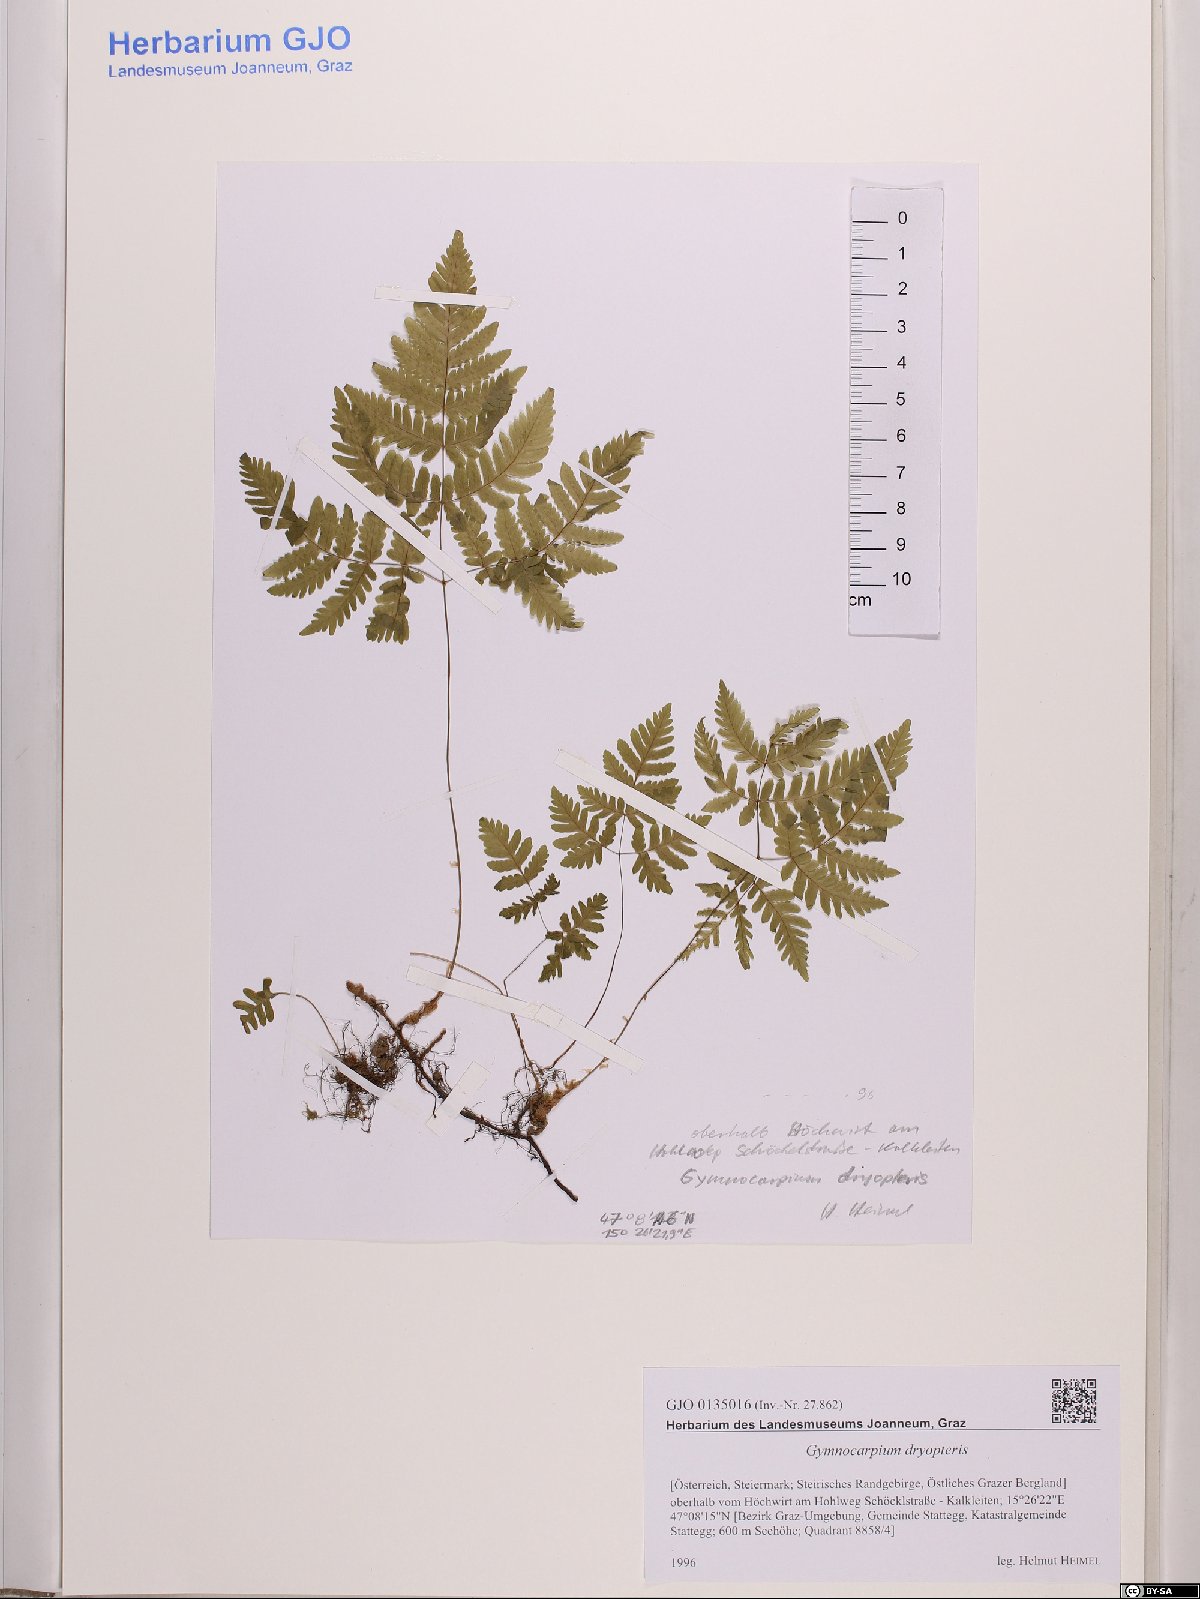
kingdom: Plantae
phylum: Tracheophyta
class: Polypodiopsida
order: Polypodiales
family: Cystopteridaceae
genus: Gymnocarpium
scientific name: Gymnocarpium dryopteris
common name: Oak fern
